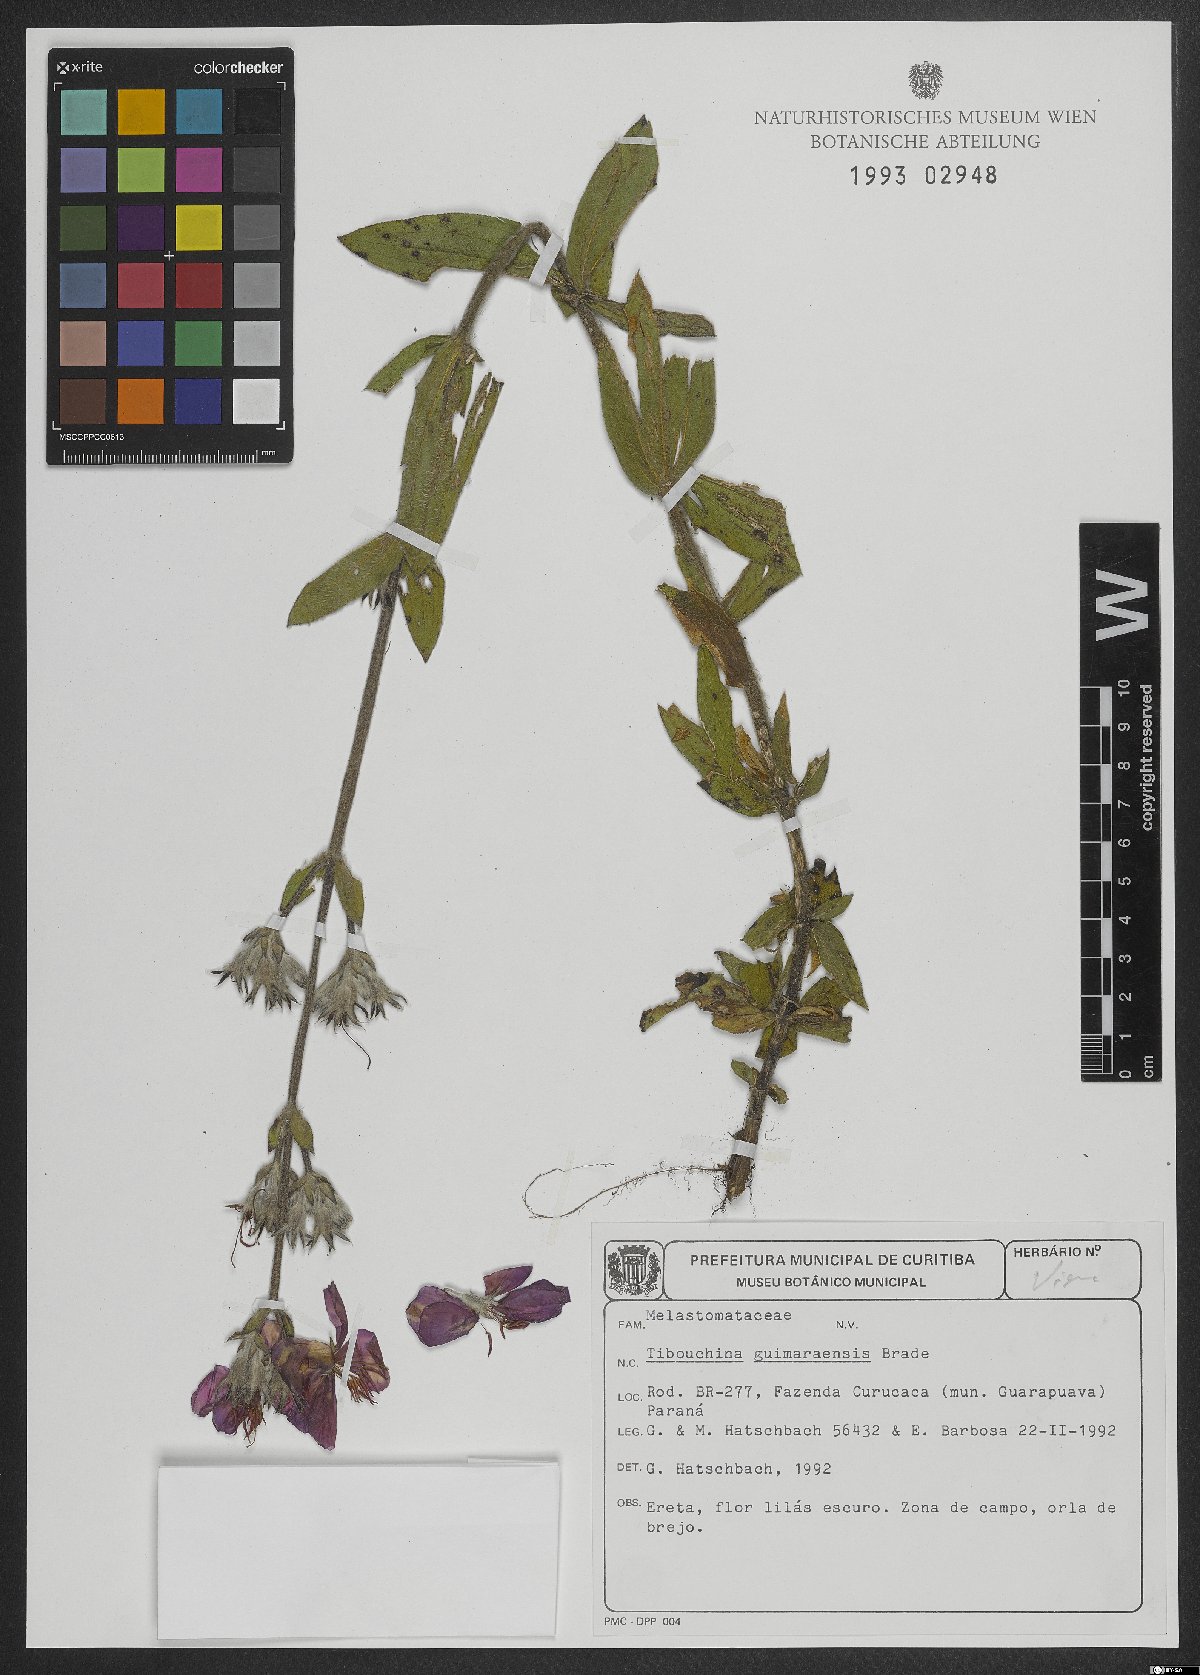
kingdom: Plantae
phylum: Tracheophyta
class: Magnoliopsida
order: Myrtales
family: Melastomataceae
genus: Chaetogastra
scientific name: Chaetogastra hassleri
